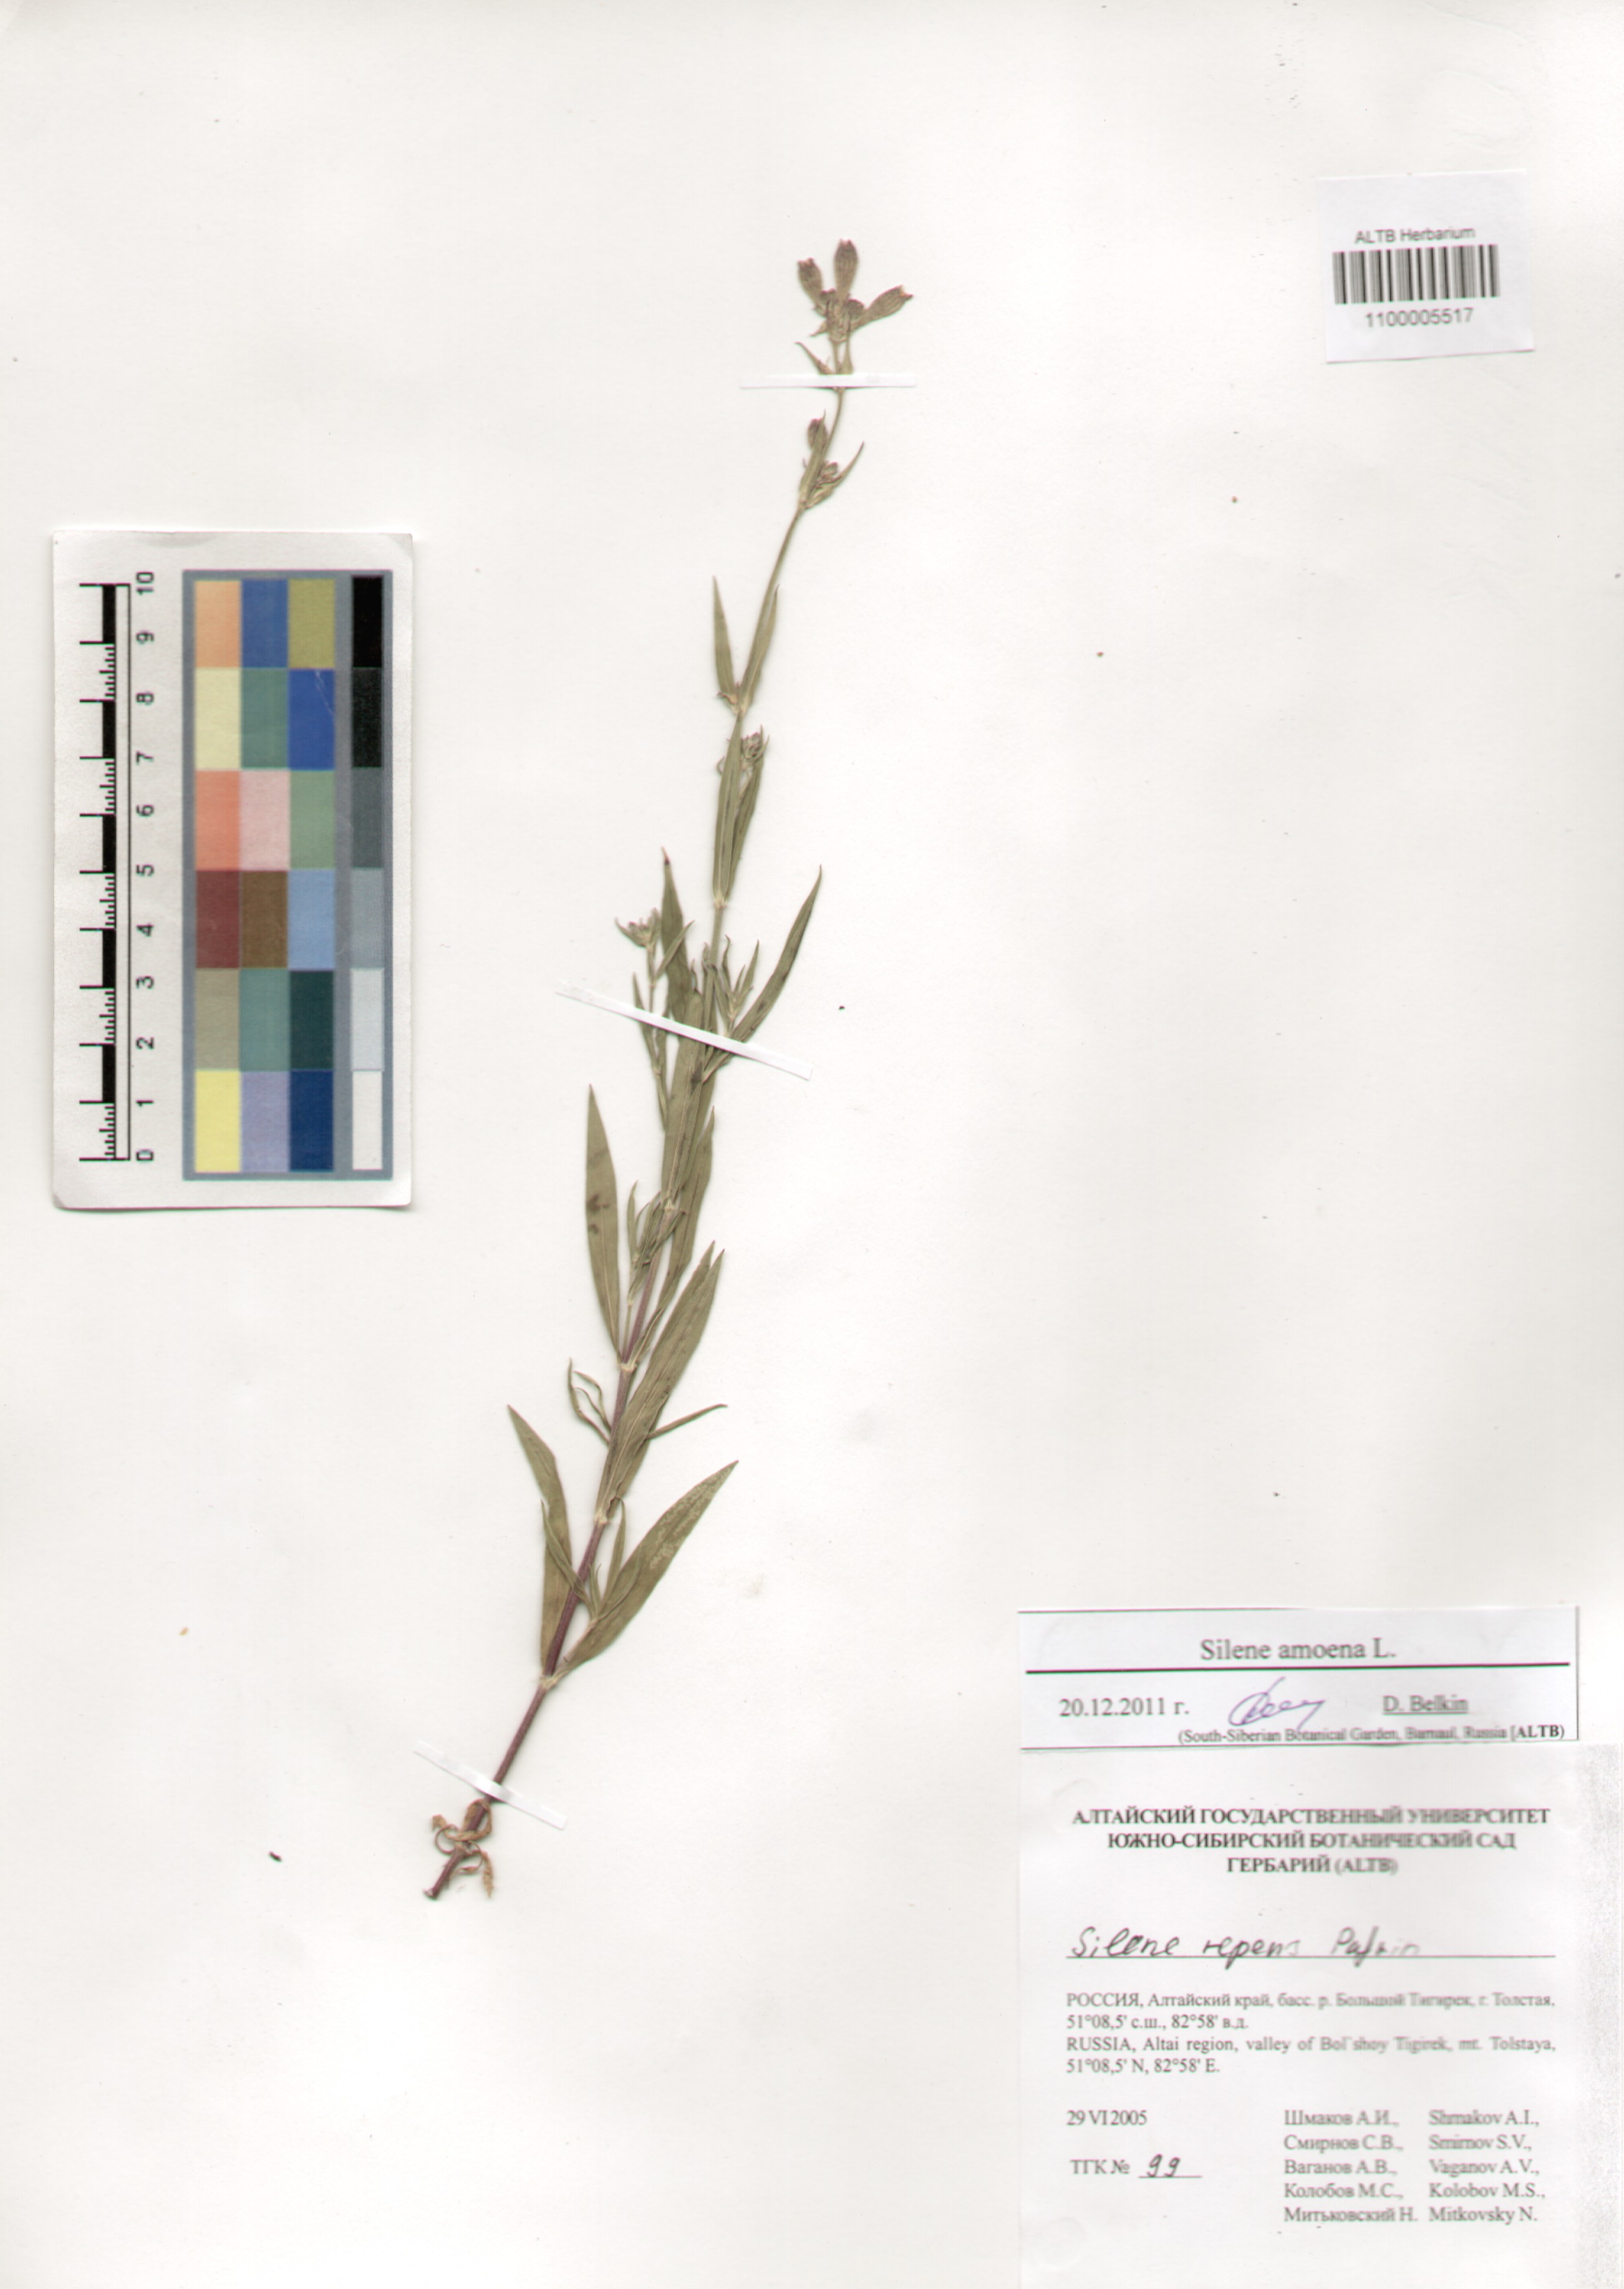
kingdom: Plantae
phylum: Tracheophyta
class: Magnoliopsida
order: Caryophyllales
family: Caryophyllaceae
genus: Silene
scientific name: Silene amoena
